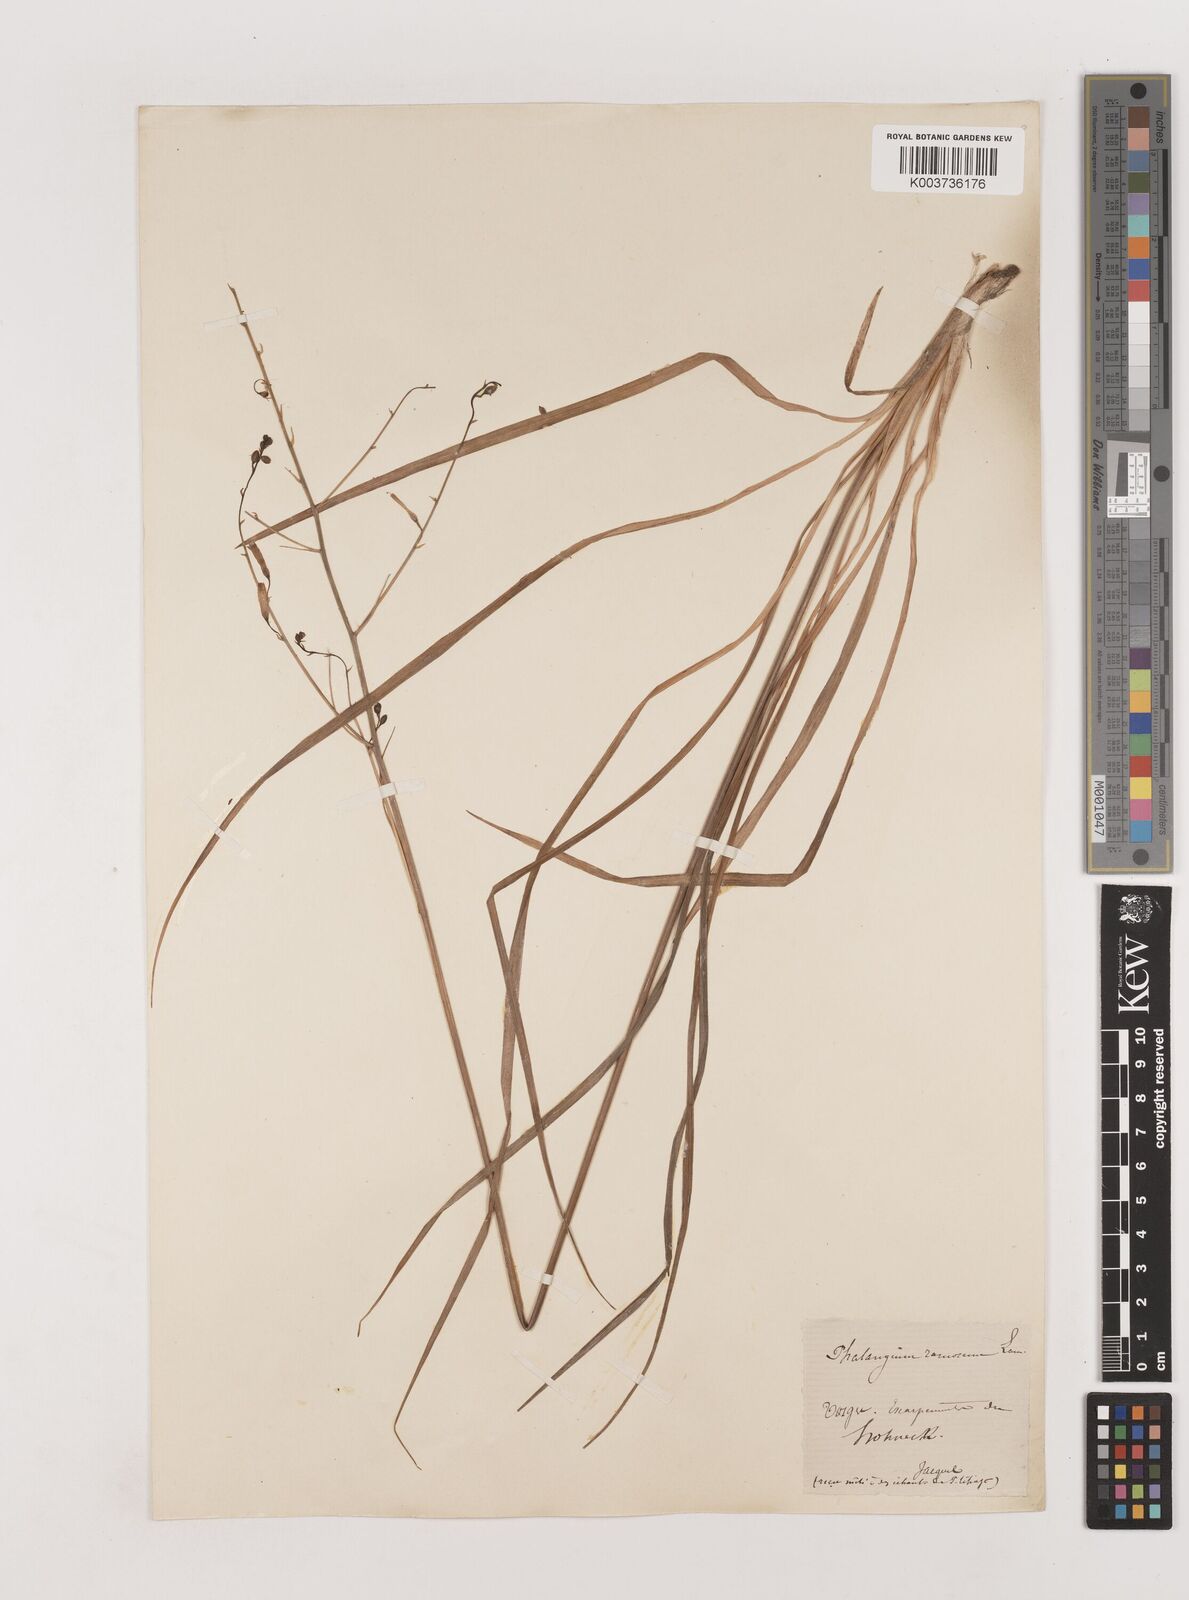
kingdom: Plantae
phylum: Tracheophyta
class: Liliopsida
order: Asparagales
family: Asparagaceae
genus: Anthericum
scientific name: Anthericum ramosum
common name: Branched st. bernard's-lily
